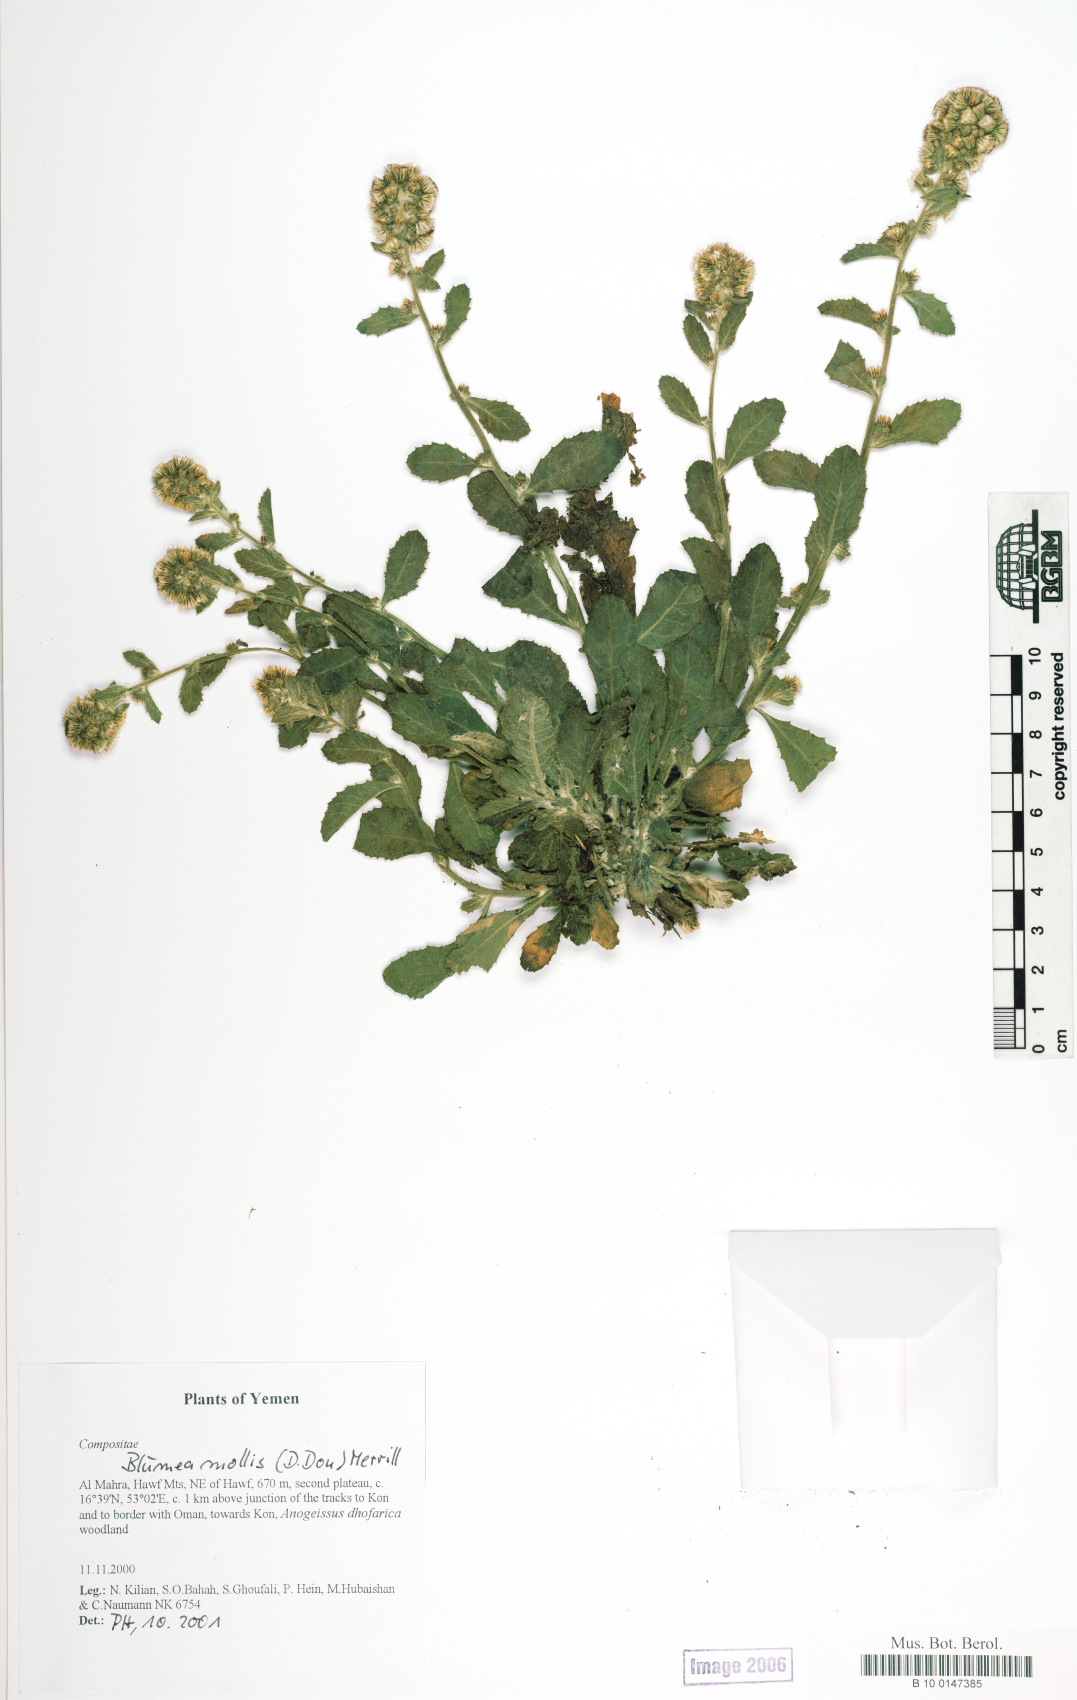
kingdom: Plantae
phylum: Tracheophyta
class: Magnoliopsida
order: Asterales
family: Asteraceae
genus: Blumea
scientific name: Blumea axillaris
